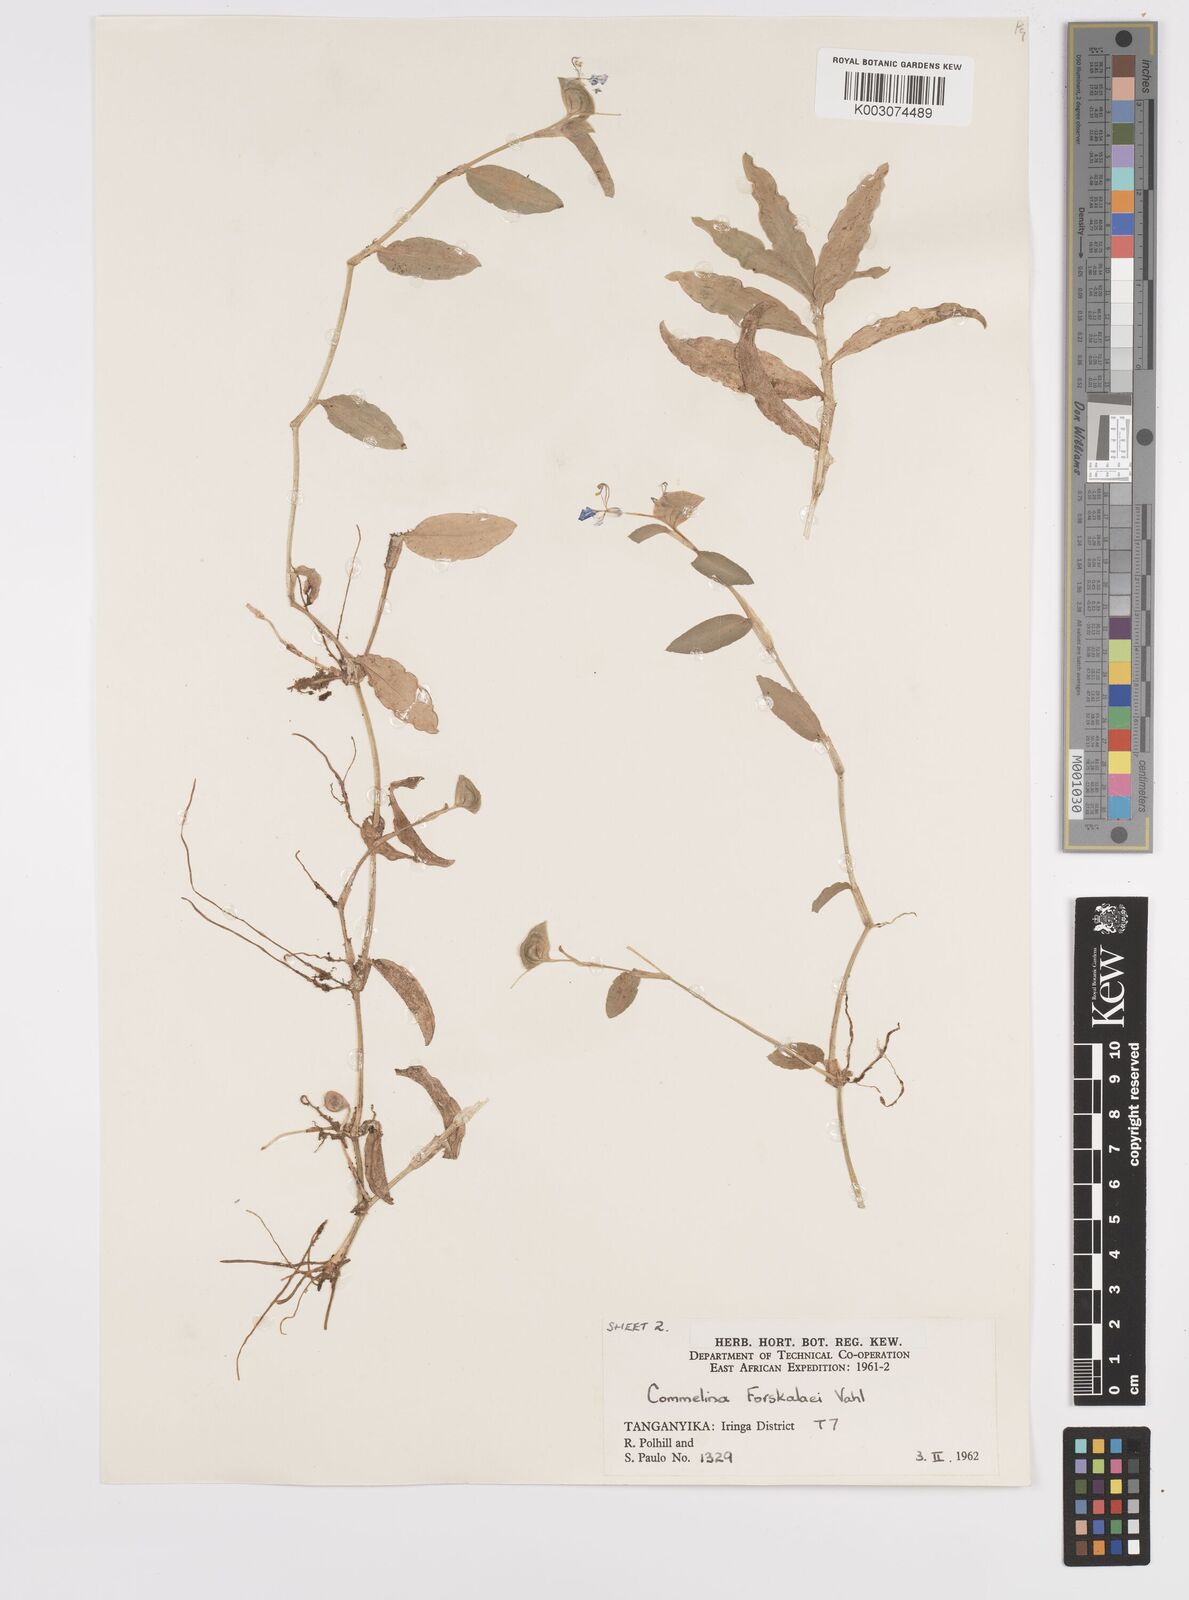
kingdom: Plantae
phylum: Tracheophyta
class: Liliopsida
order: Commelinales
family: Commelinaceae
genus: Commelina
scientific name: Commelina
